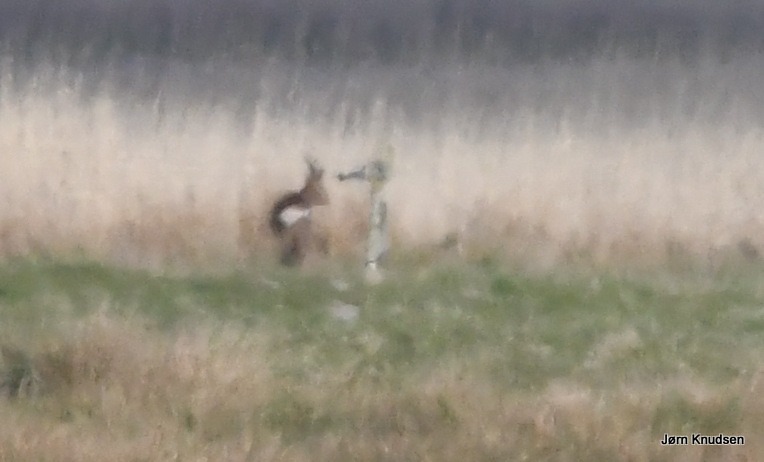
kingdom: Animalia
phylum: Chordata
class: Mammalia
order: Artiodactyla
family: Cervidae
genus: Capreolus
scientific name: Capreolus capreolus
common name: Rådyr
